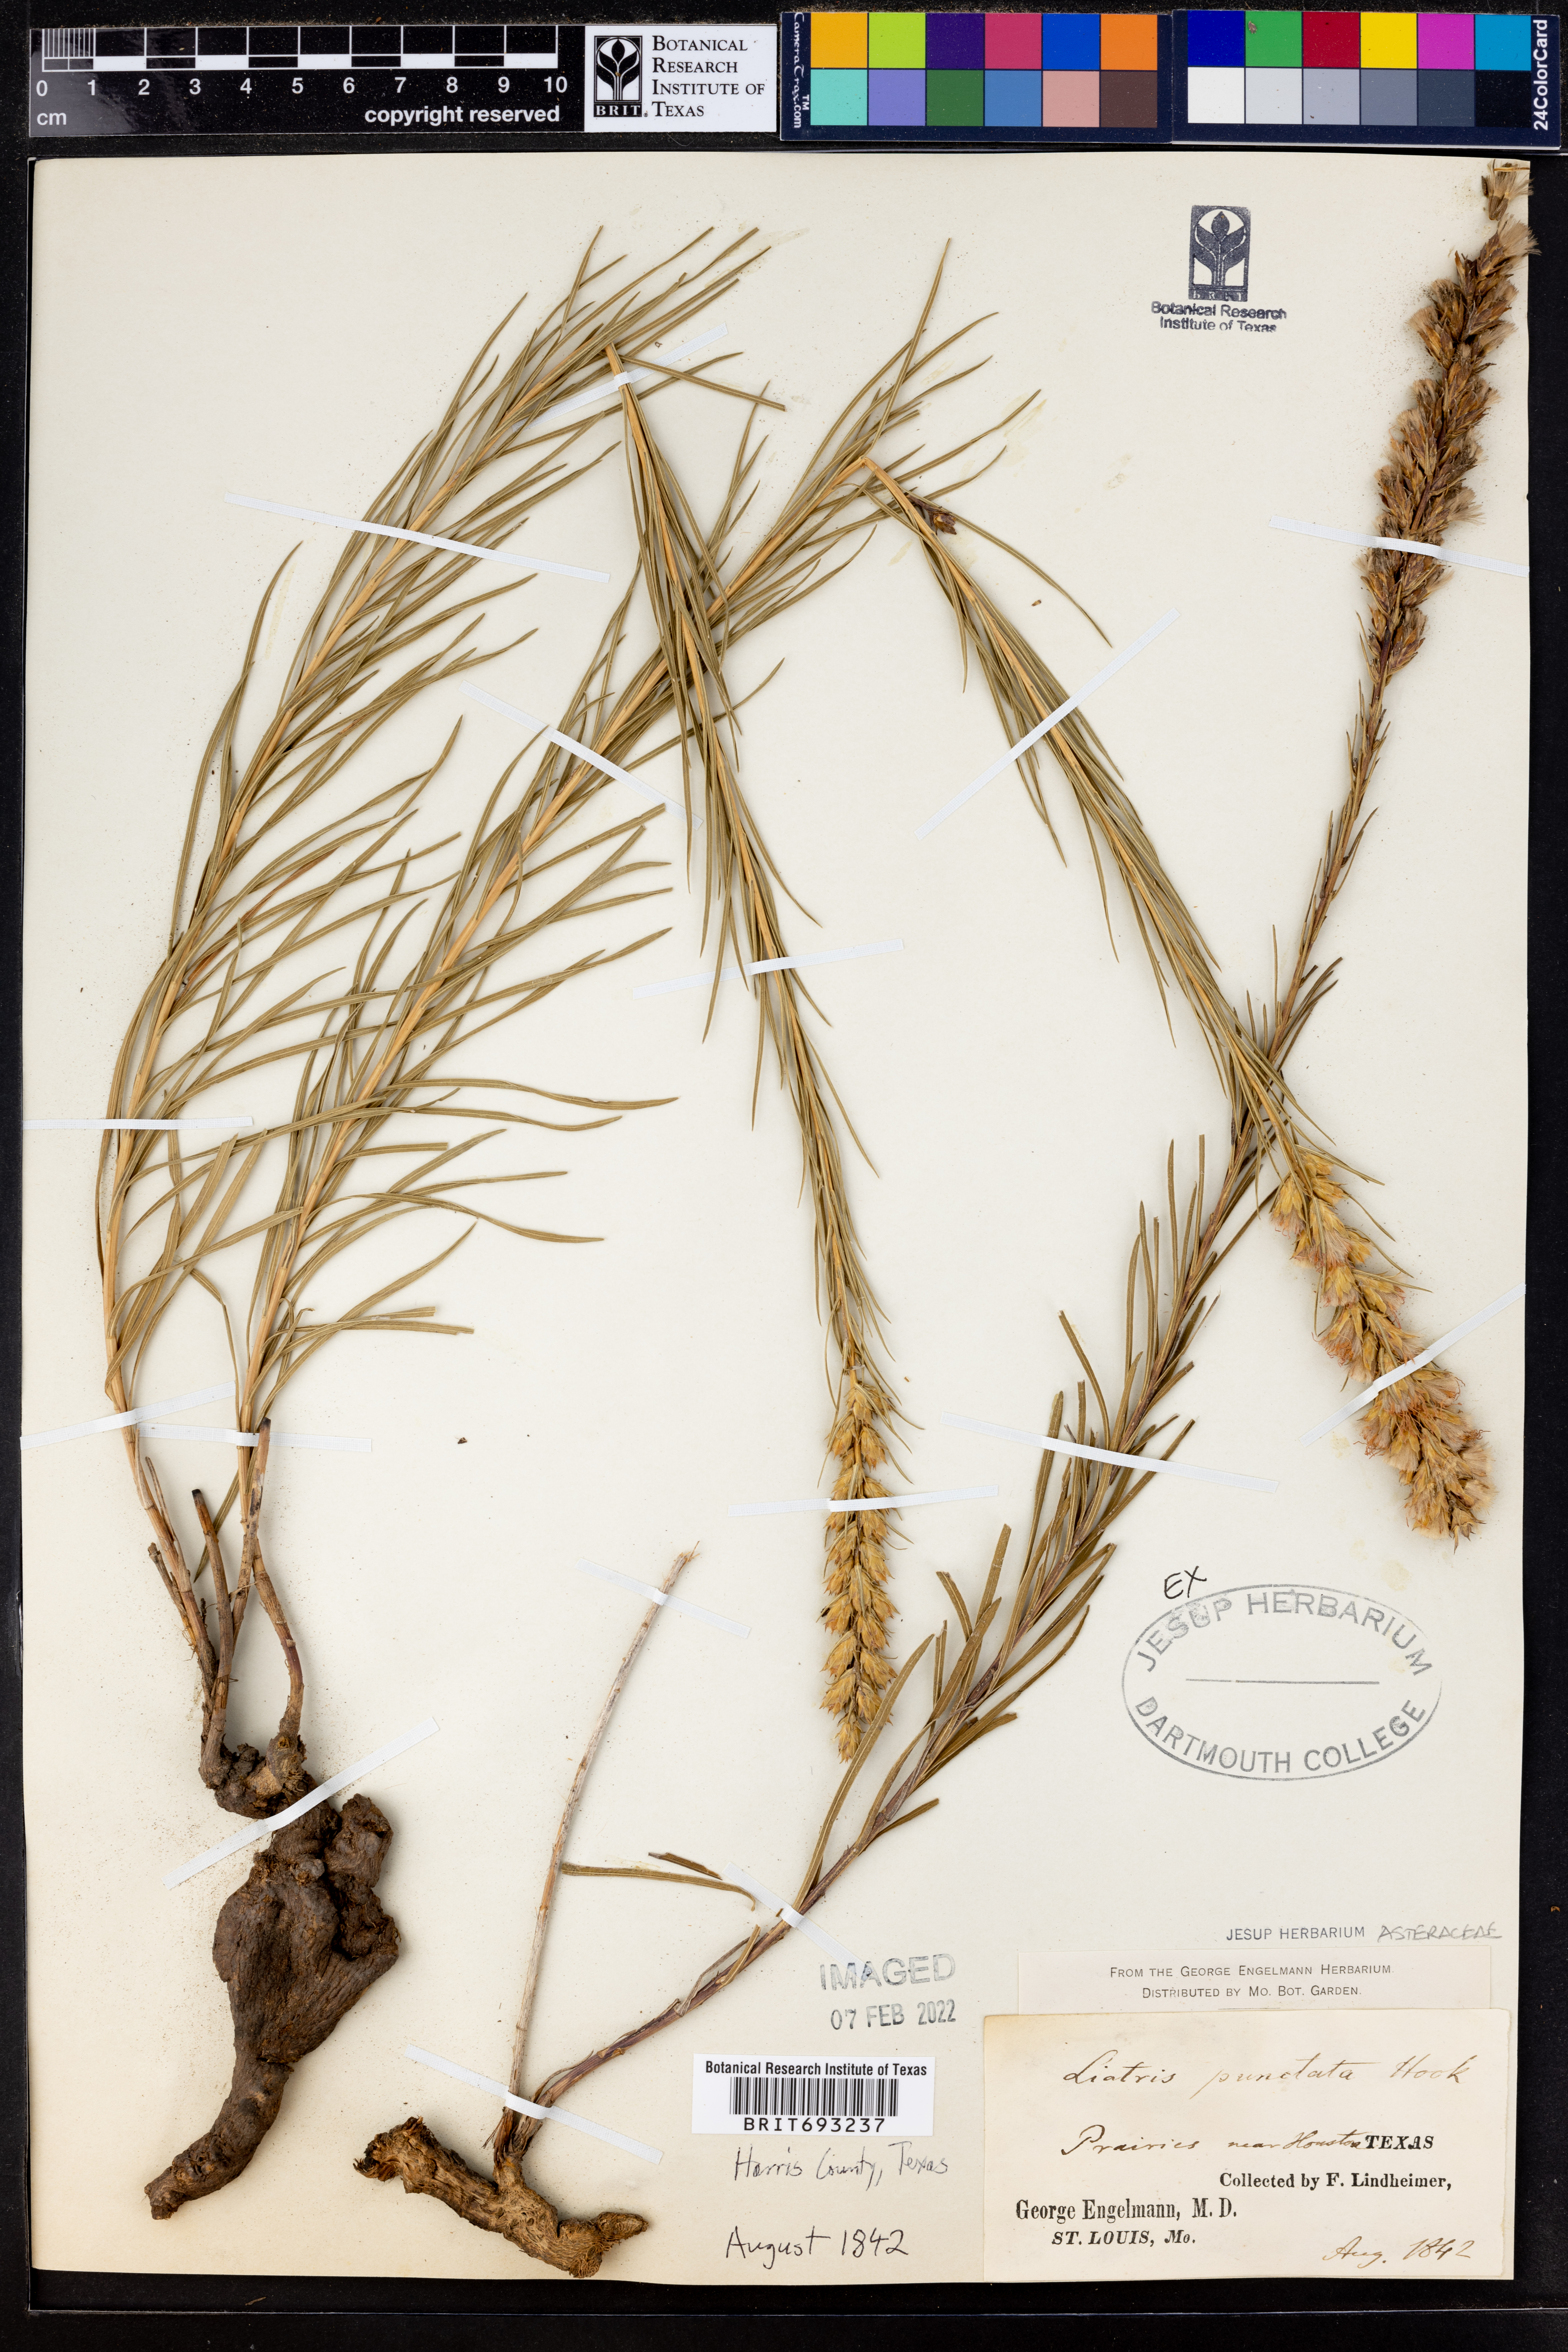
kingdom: Plantae
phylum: Tracheophyta
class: Magnoliopsida
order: Asterales
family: Asteraceae
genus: Liatris
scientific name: Liatris punctata
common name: Dotted gayfeather
